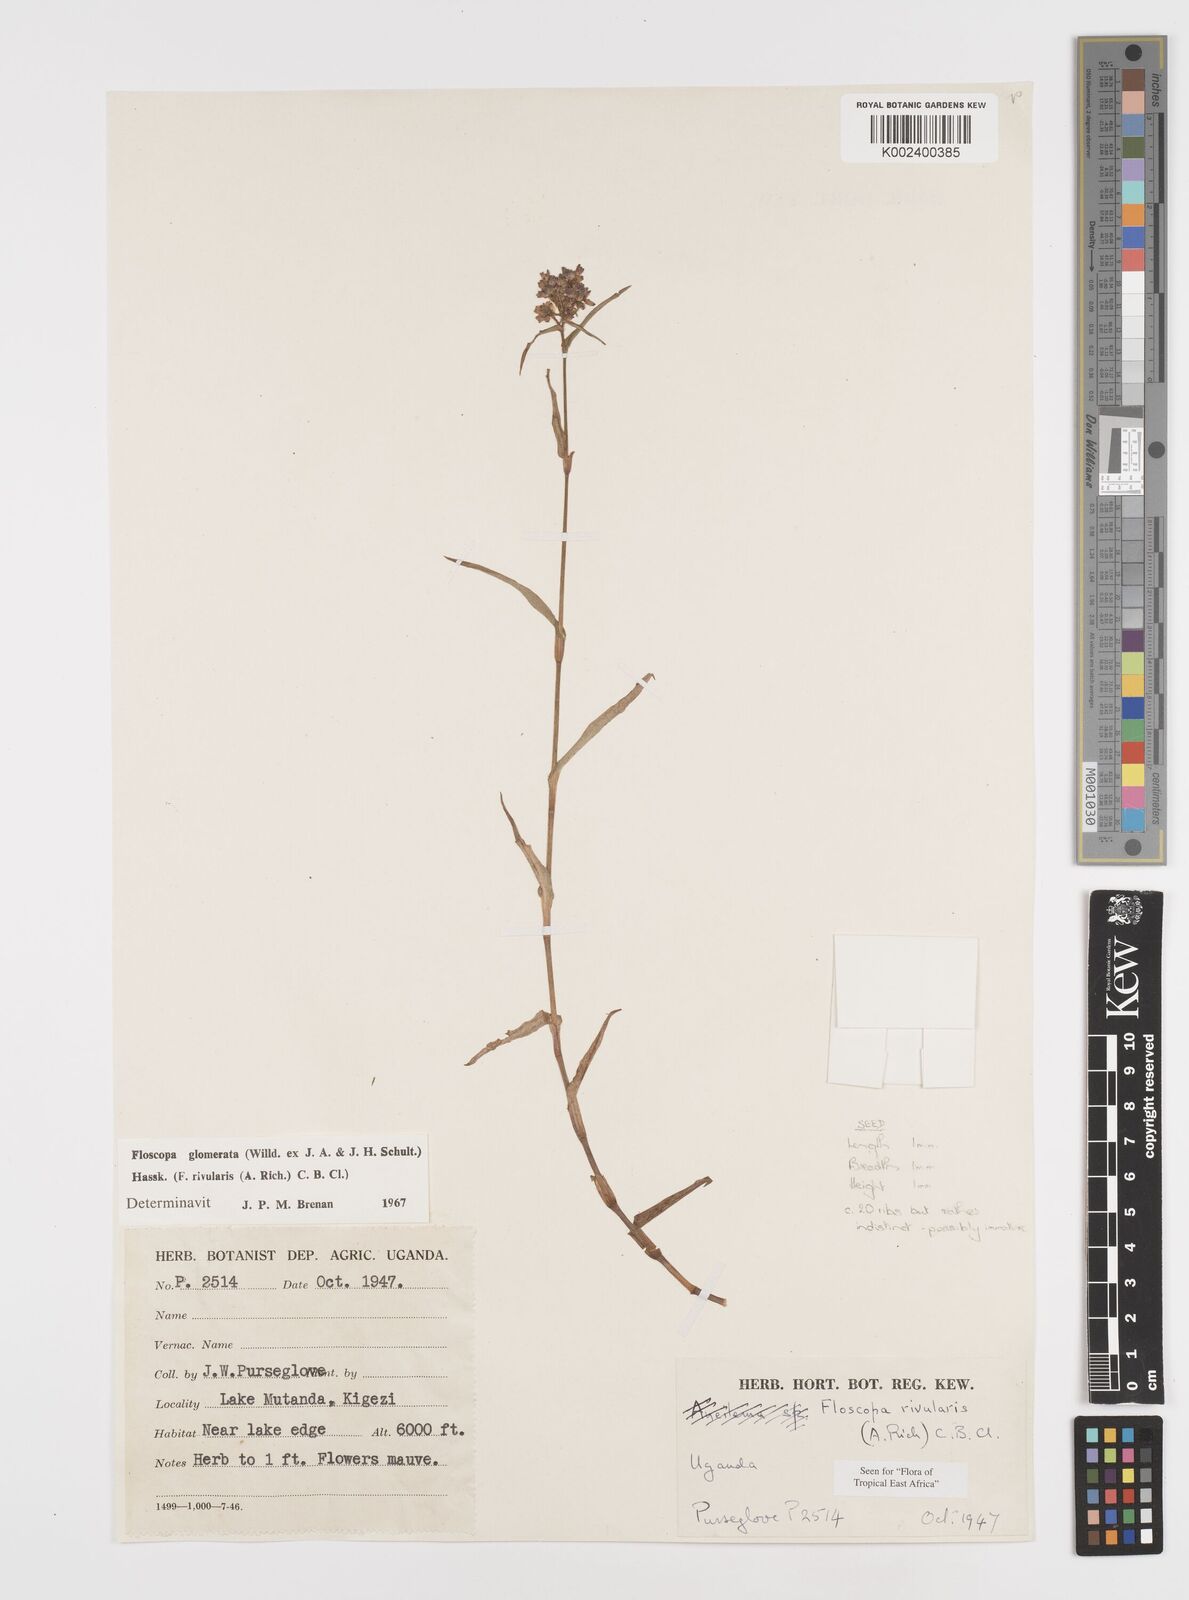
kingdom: Plantae
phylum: Tracheophyta
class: Liliopsida
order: Commelinales
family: Commelinaceae
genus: Floscopa
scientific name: Floscopa glomerata
